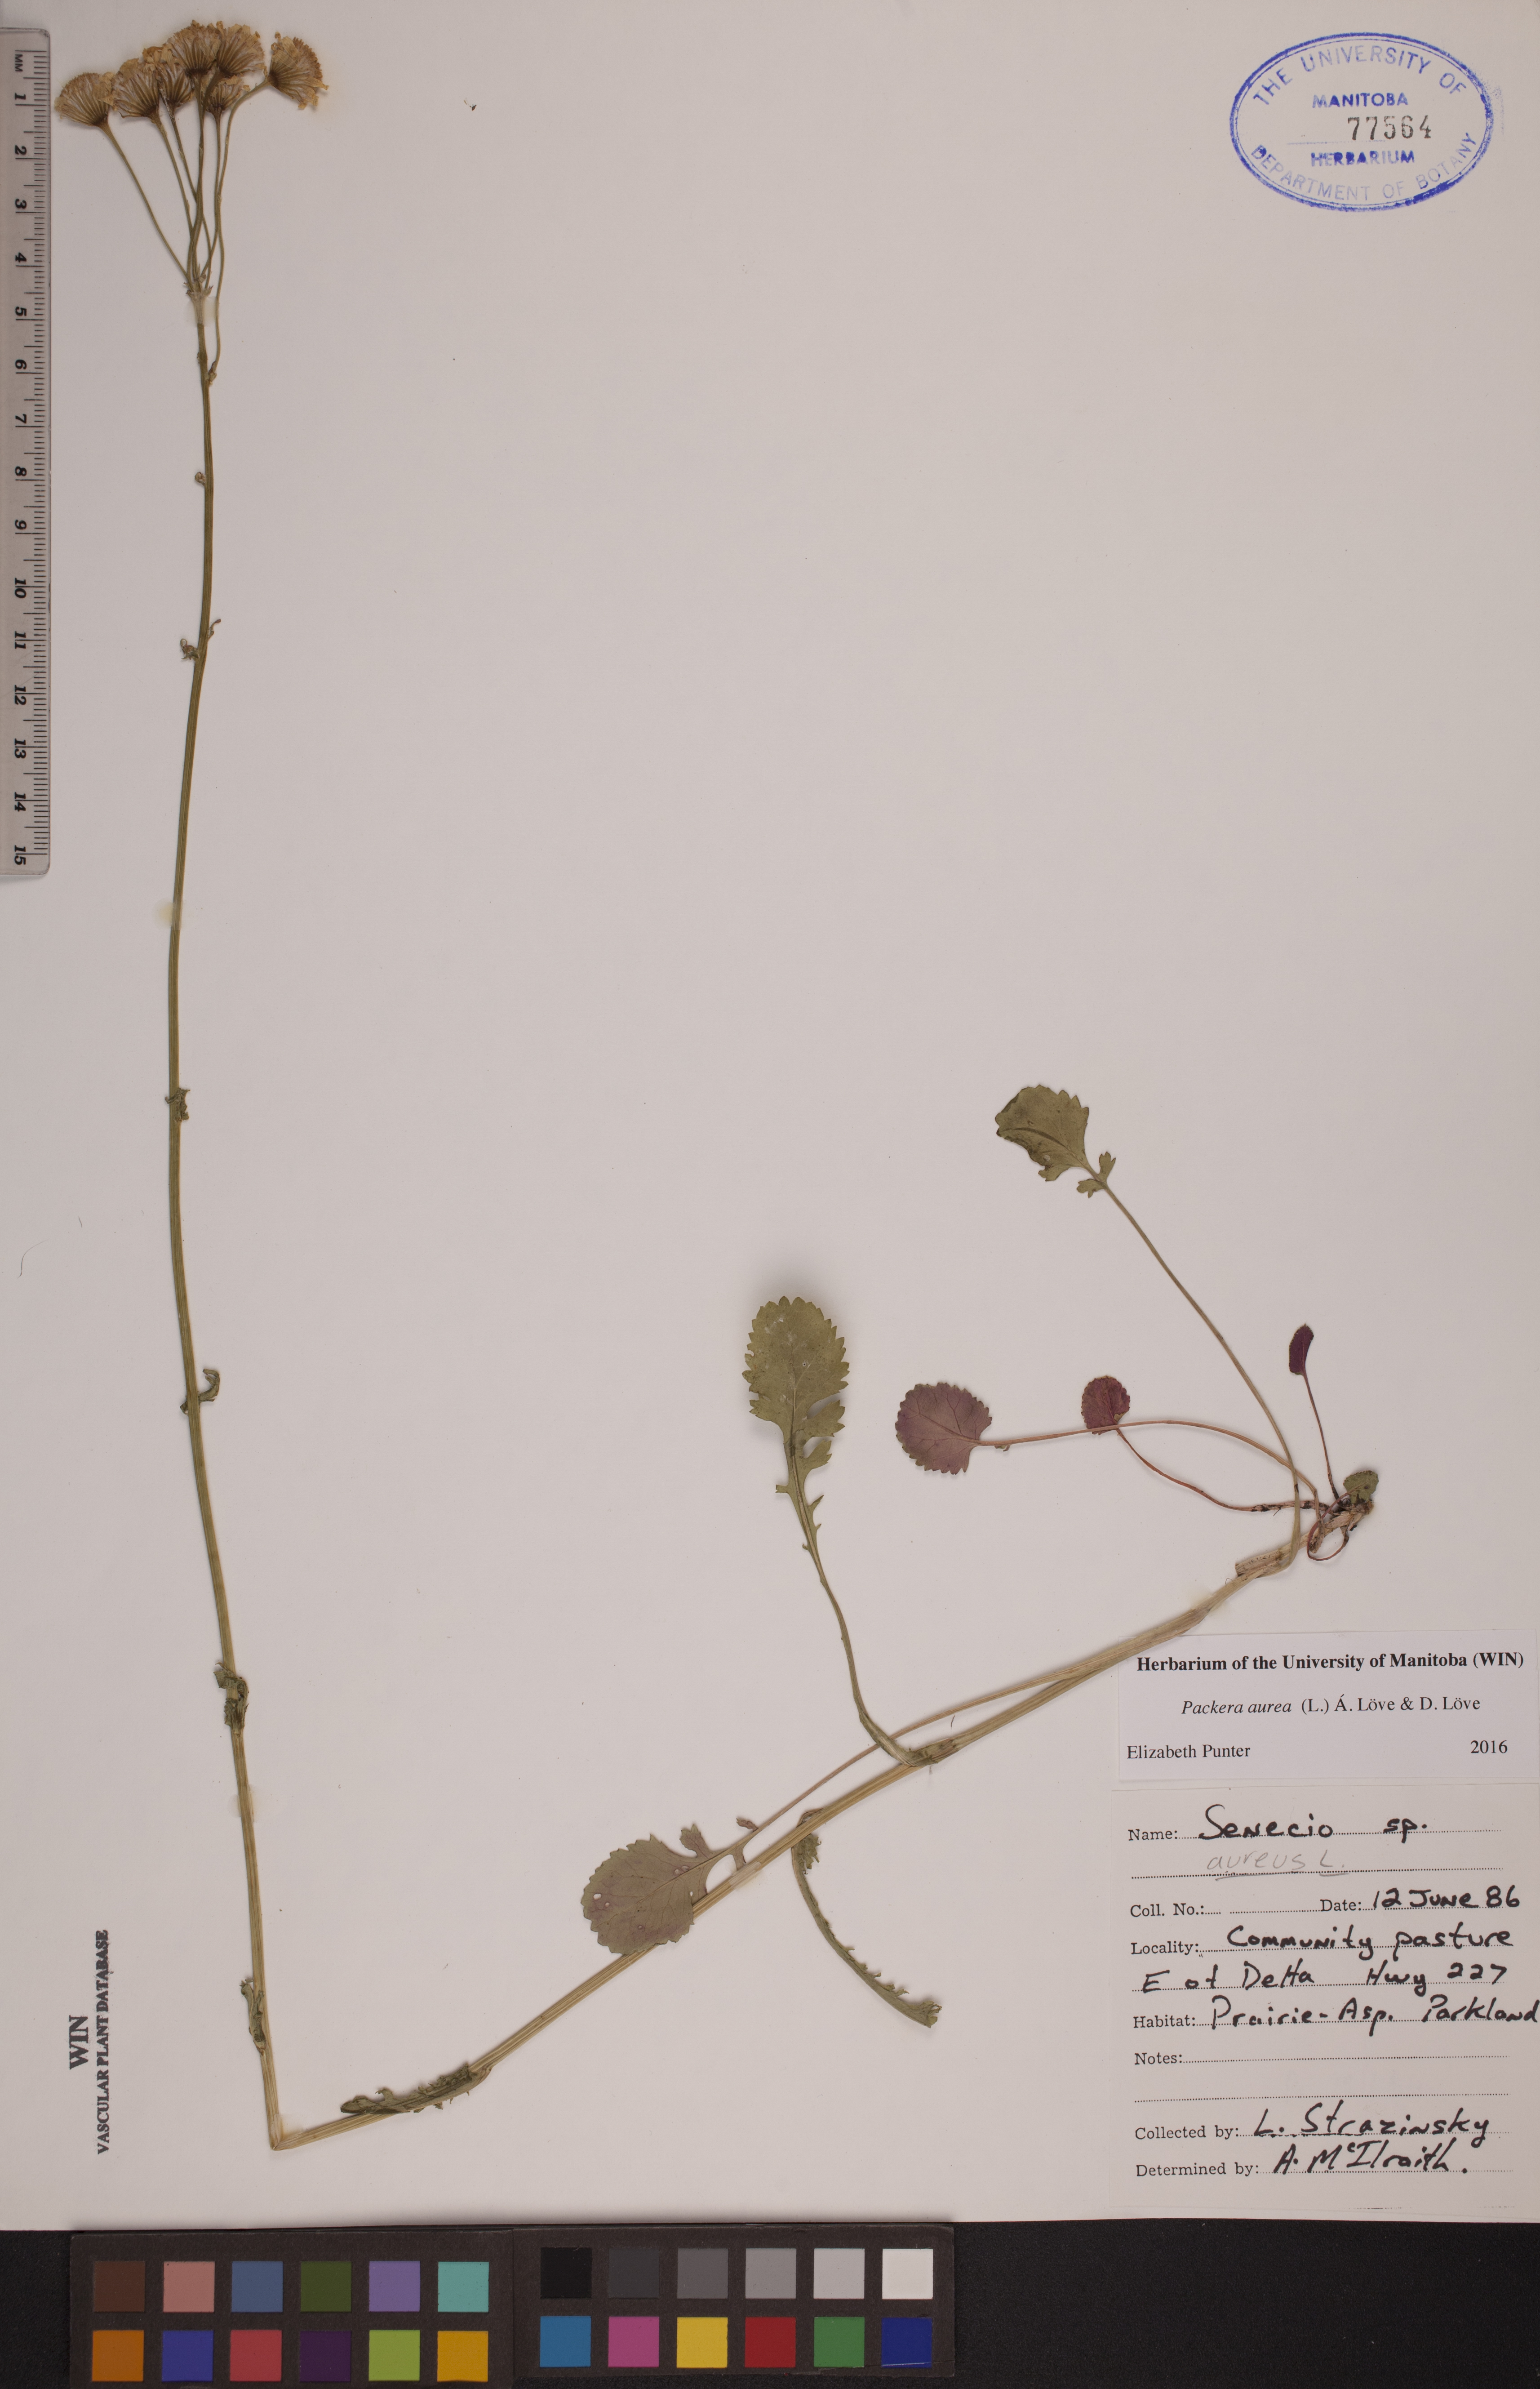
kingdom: Plantae
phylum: Tracheophyta
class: Magnoliopsida
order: Asterales
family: Asteraceae
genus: Packera
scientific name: Packera aurea
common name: Golden groundsel
